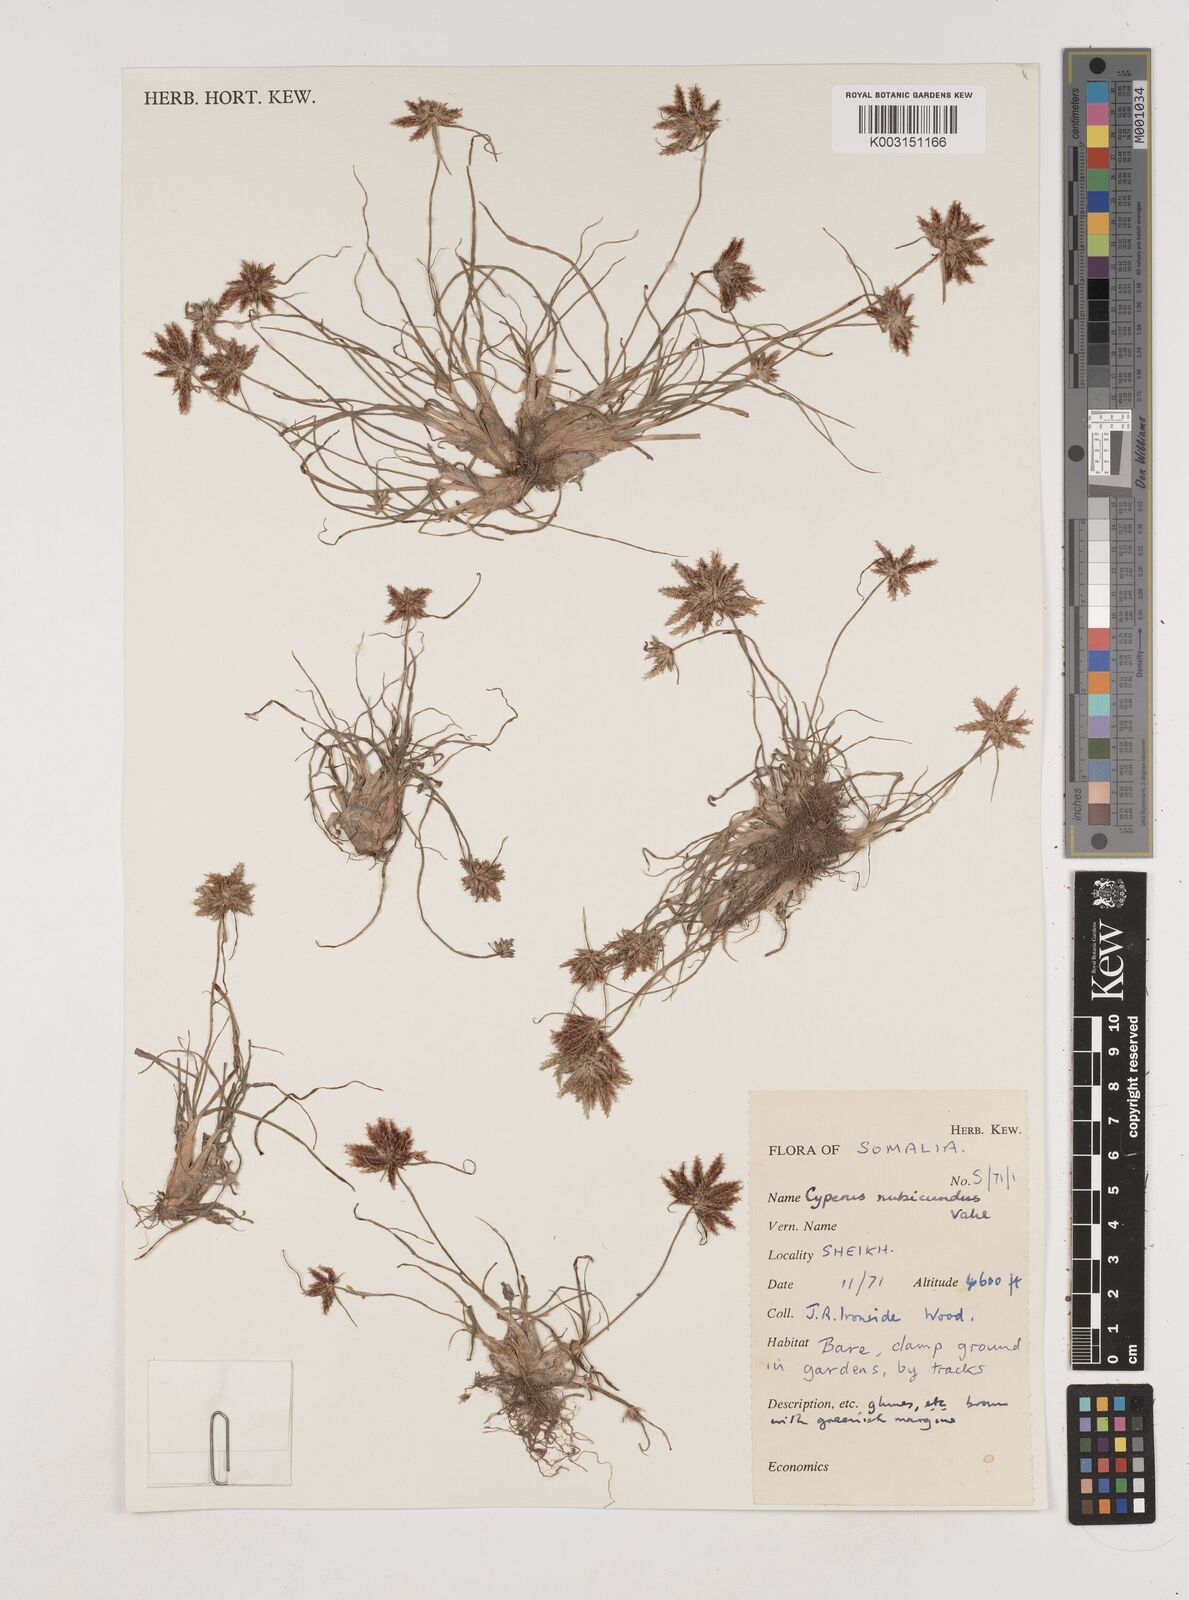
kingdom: Plantae
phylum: Tracheophyta
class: Liliopsida
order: Poales
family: Cyperaceae
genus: Cyperus
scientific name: Cyperus rubicundus
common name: Coco-grass
